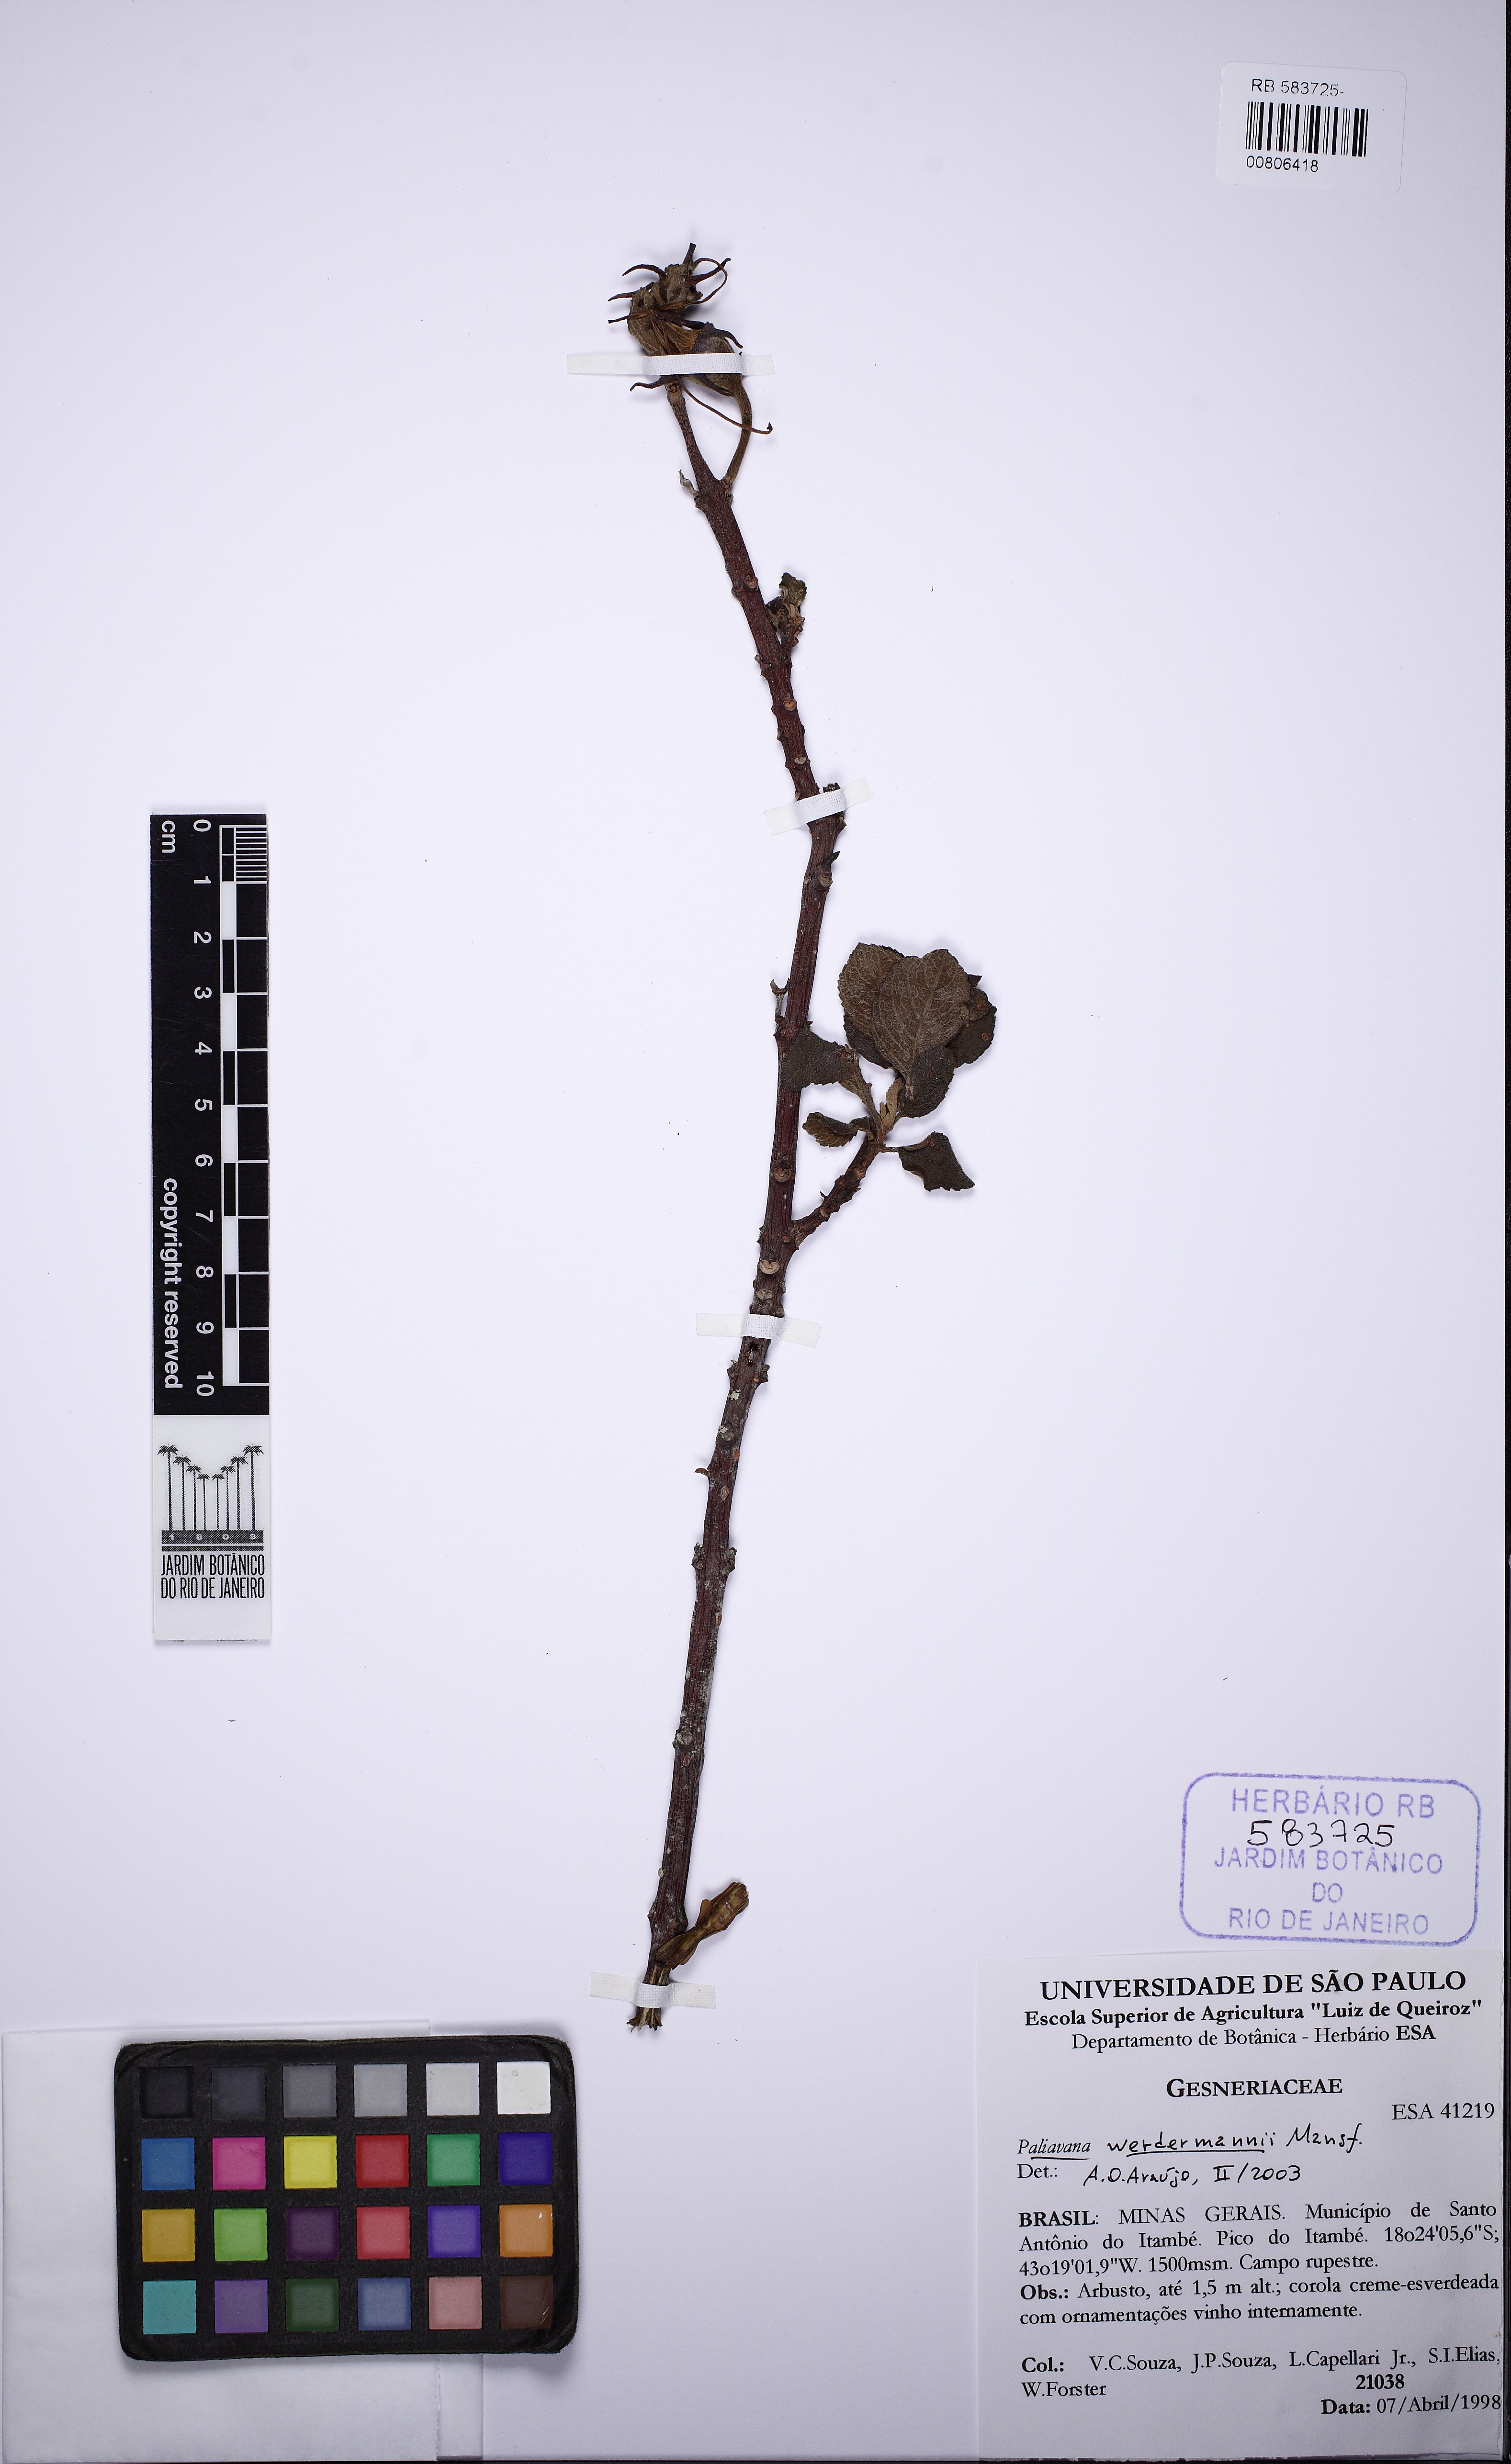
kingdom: Plantae
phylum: Tracheophyta
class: Magnoliopsida
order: Lamiales
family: Gesneriaceae
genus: Paliavana
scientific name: Paliavana werdermannii
